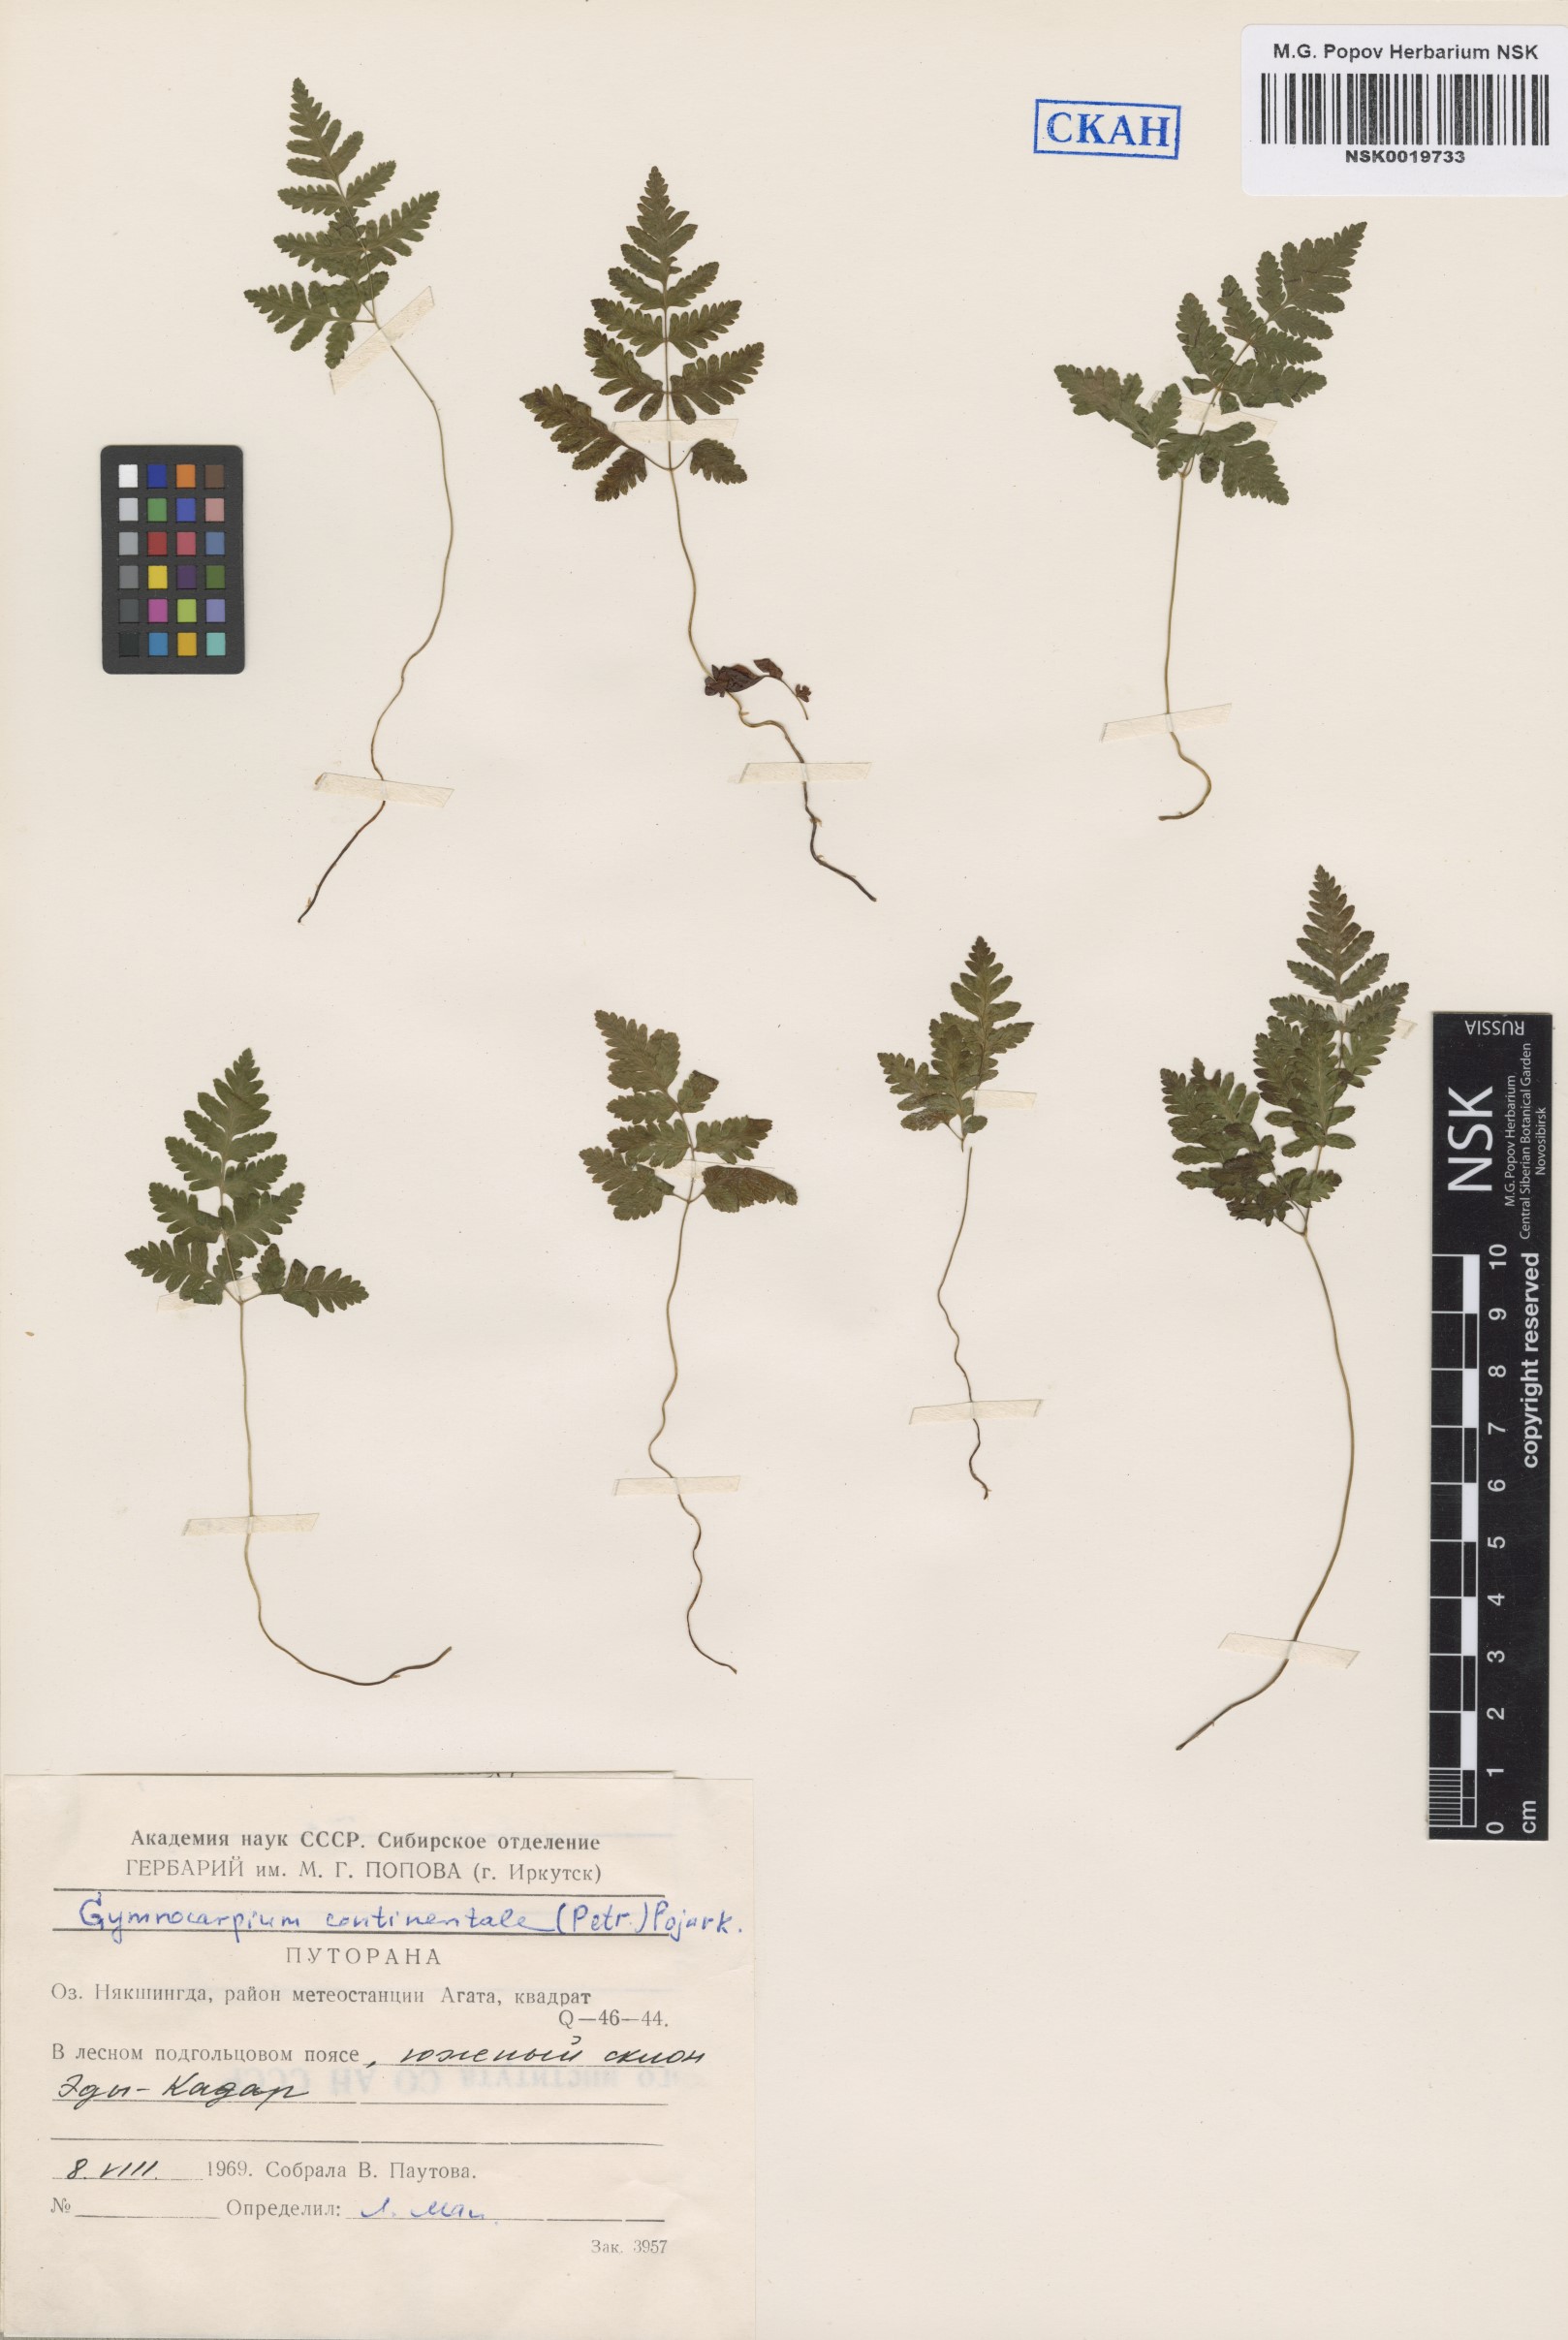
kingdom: Plantae
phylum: Tracheophyta
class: Polypodiopsida
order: Polypodiales
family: Cystopteridaceae
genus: Gymnocarpium
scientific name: Gymnocarpium continentale
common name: Asian oak fern
